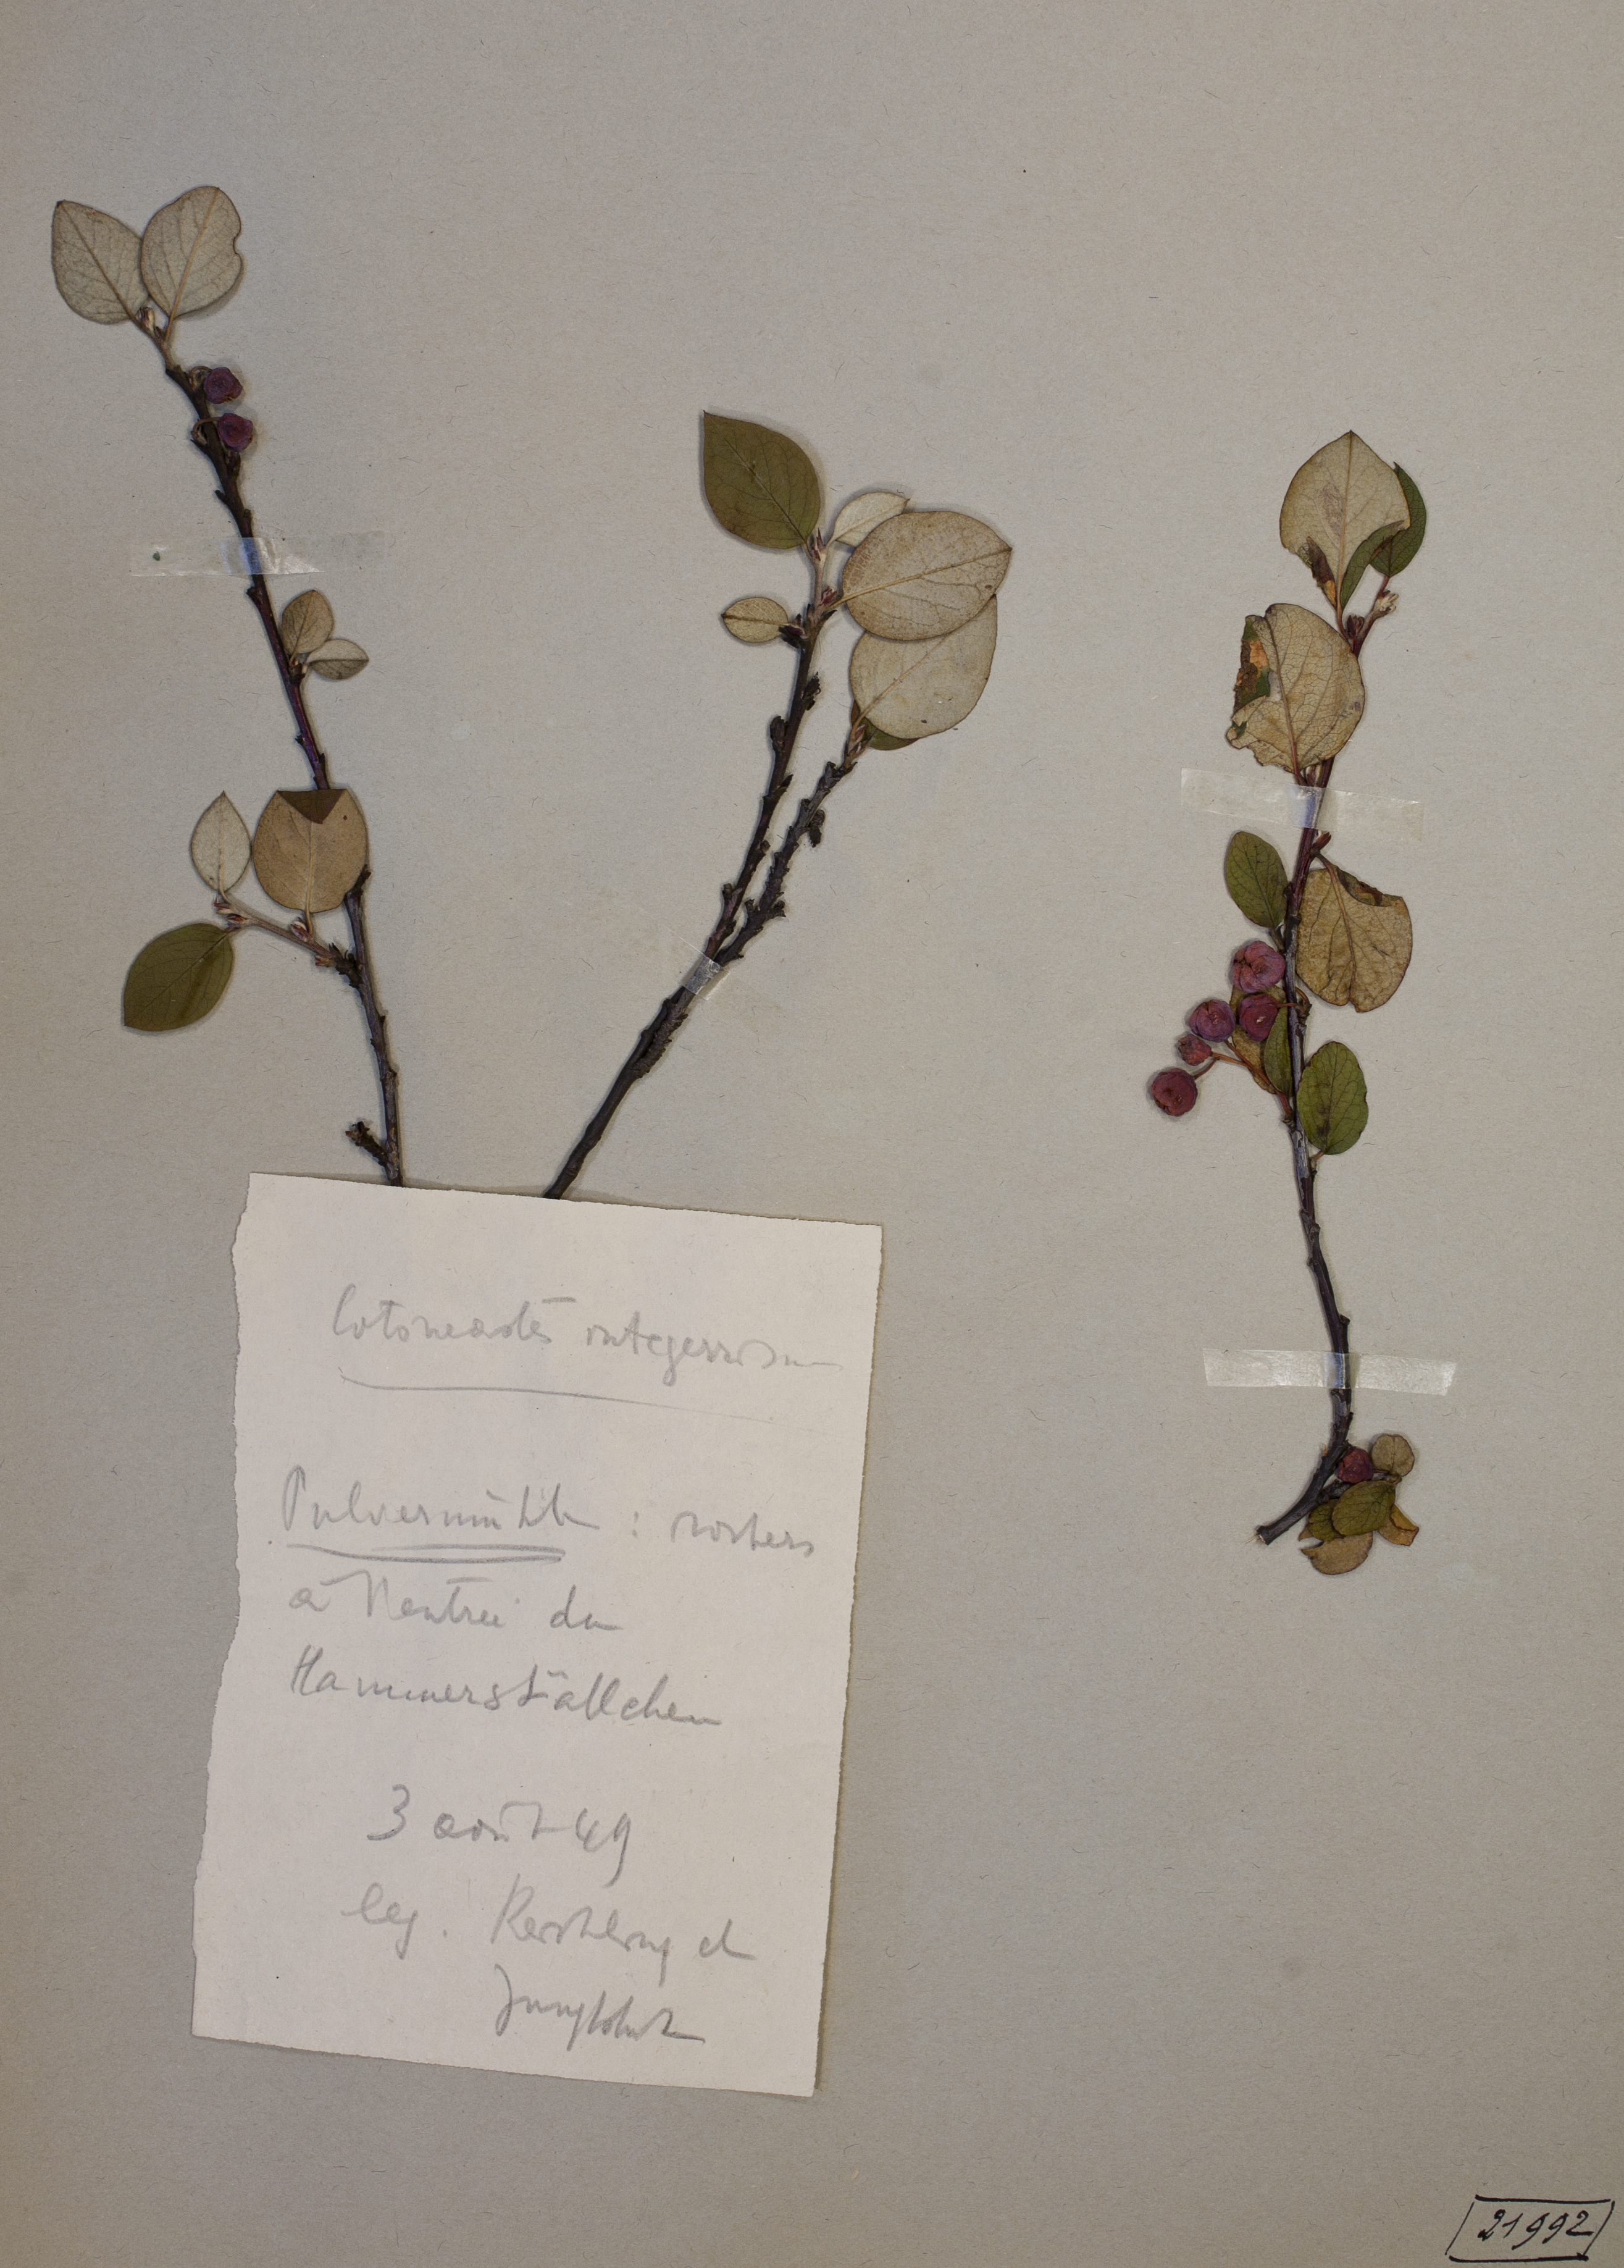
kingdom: Plantae
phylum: Tracheophyta
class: Magnoliopsida
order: Rosales
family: Rosaceae
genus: Cotoneaster
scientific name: Cotoneaster integerrimus
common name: Wild cotoneaster
